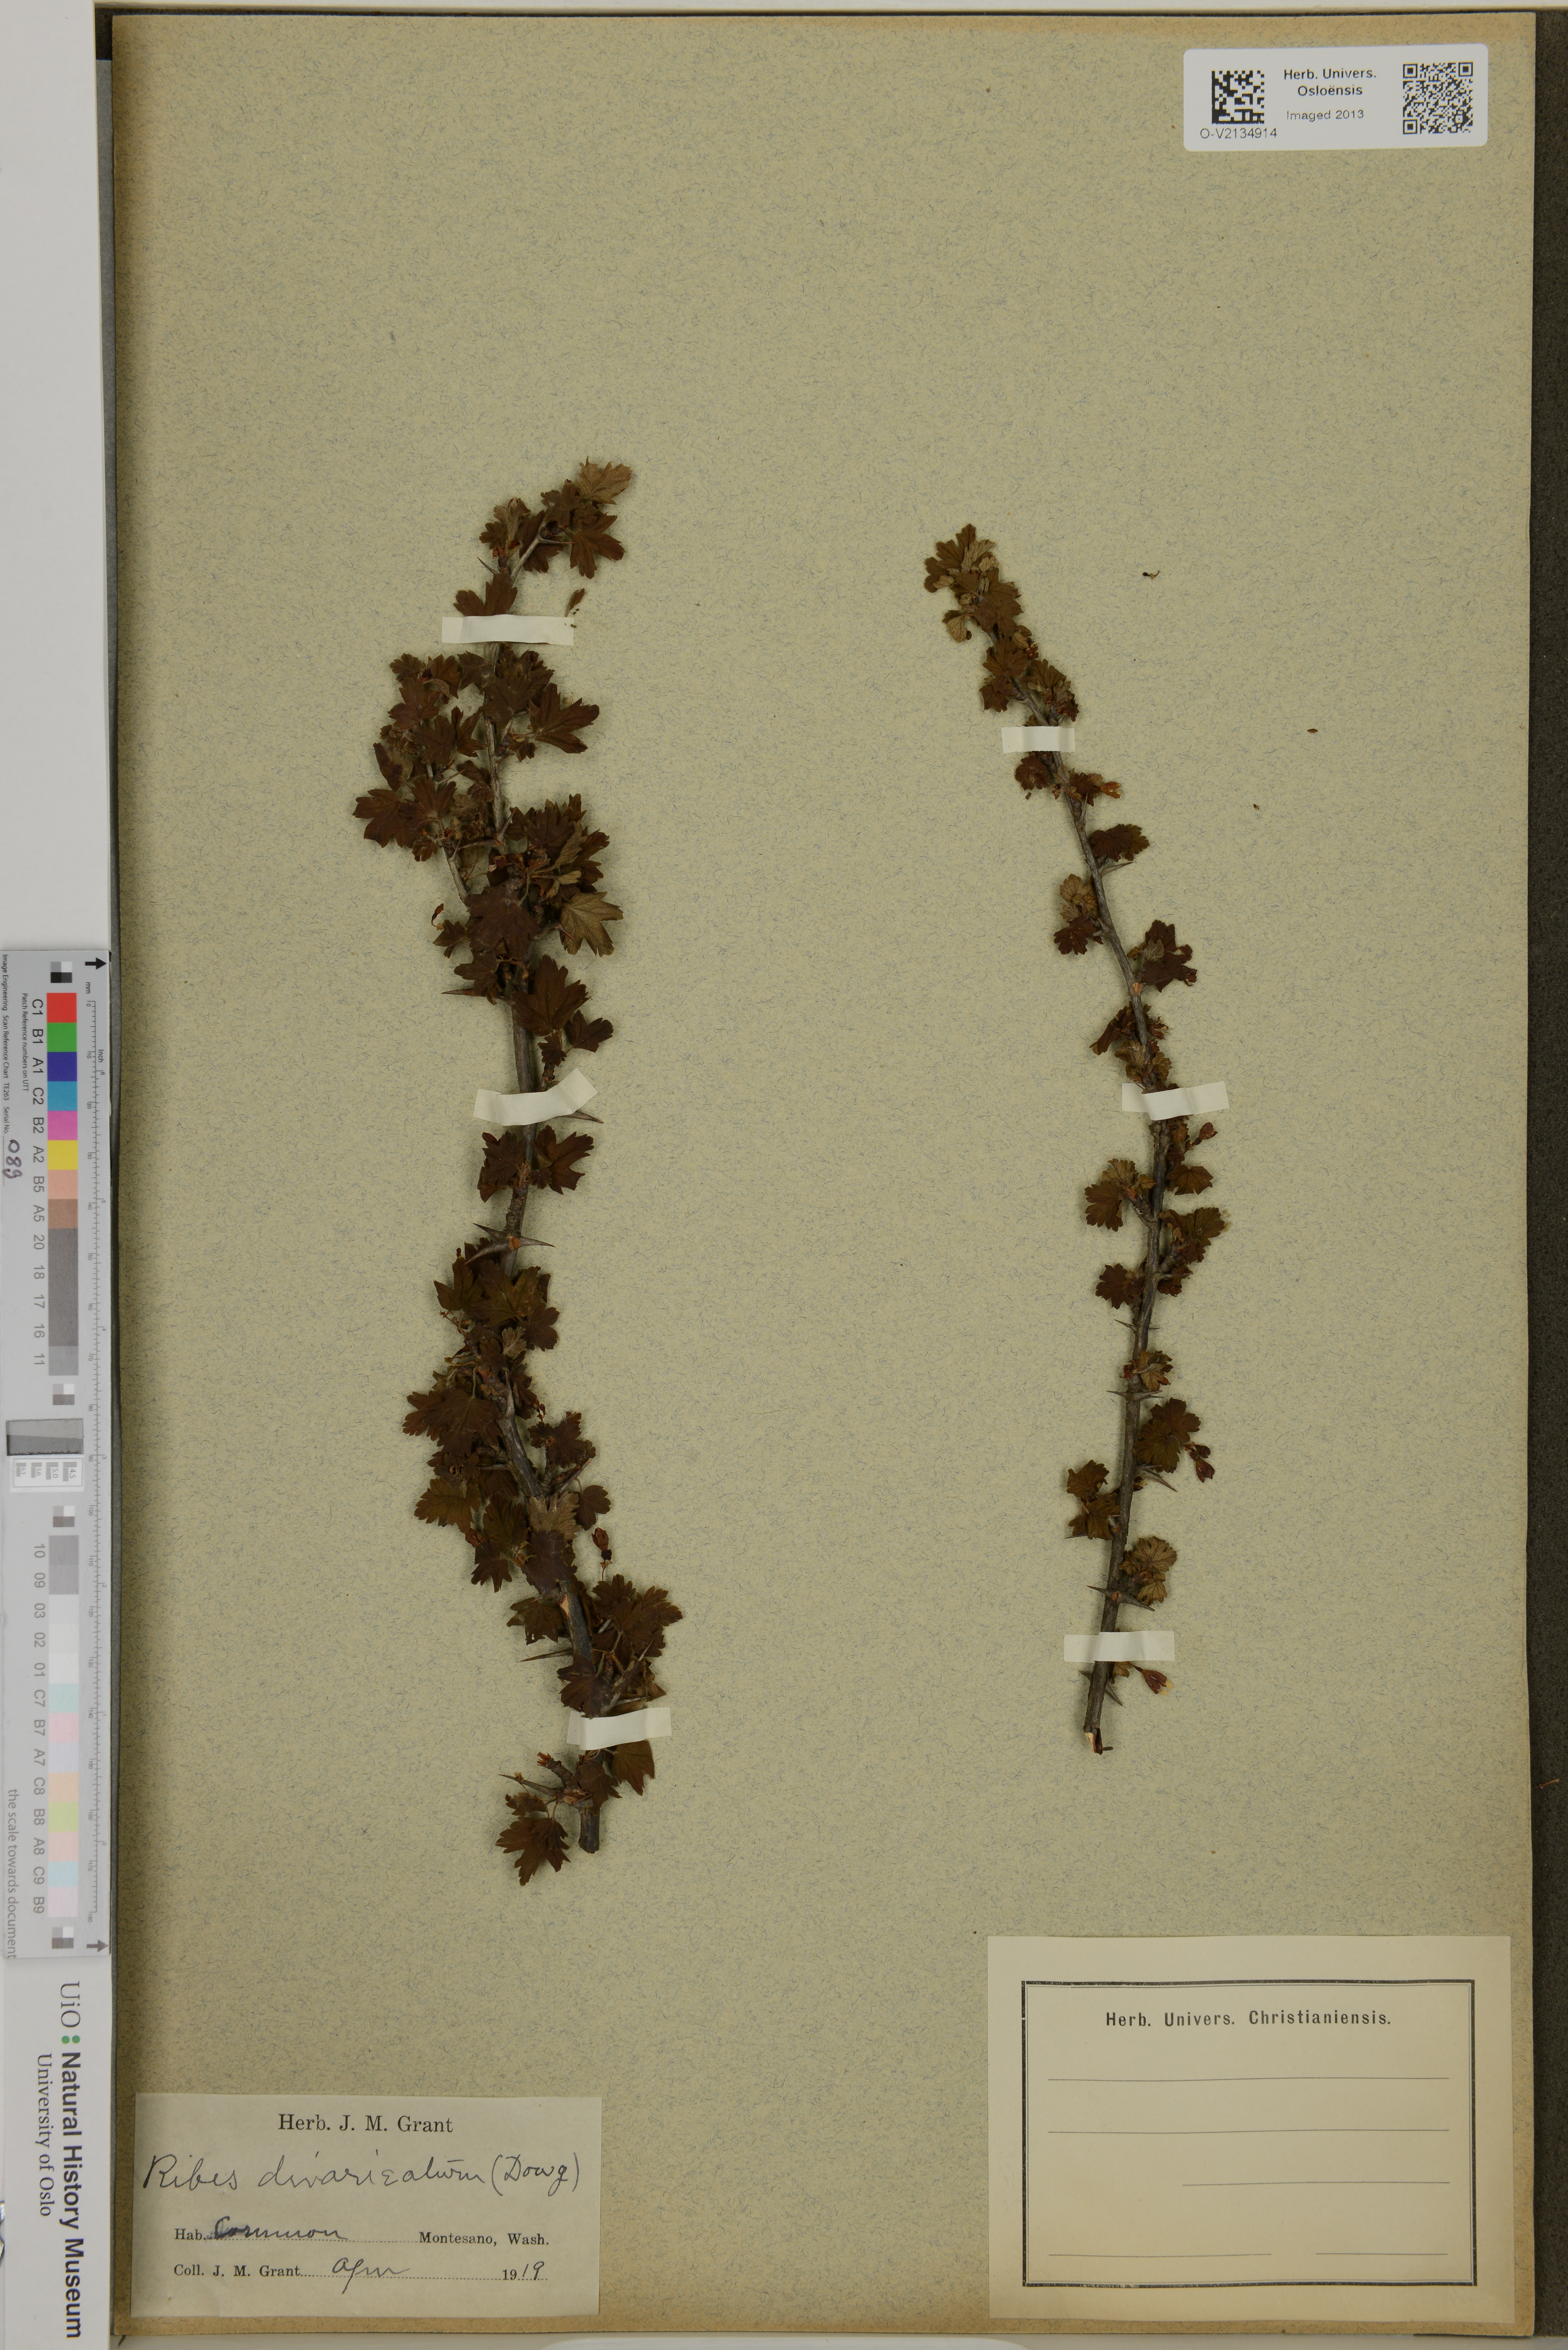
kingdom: Plantae
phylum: Tracheophyta
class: Magnoliopsida
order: Saxifragales
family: Grossulariaceae
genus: Ribes
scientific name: Ribes divaricatum
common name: Wild black gooseberry
